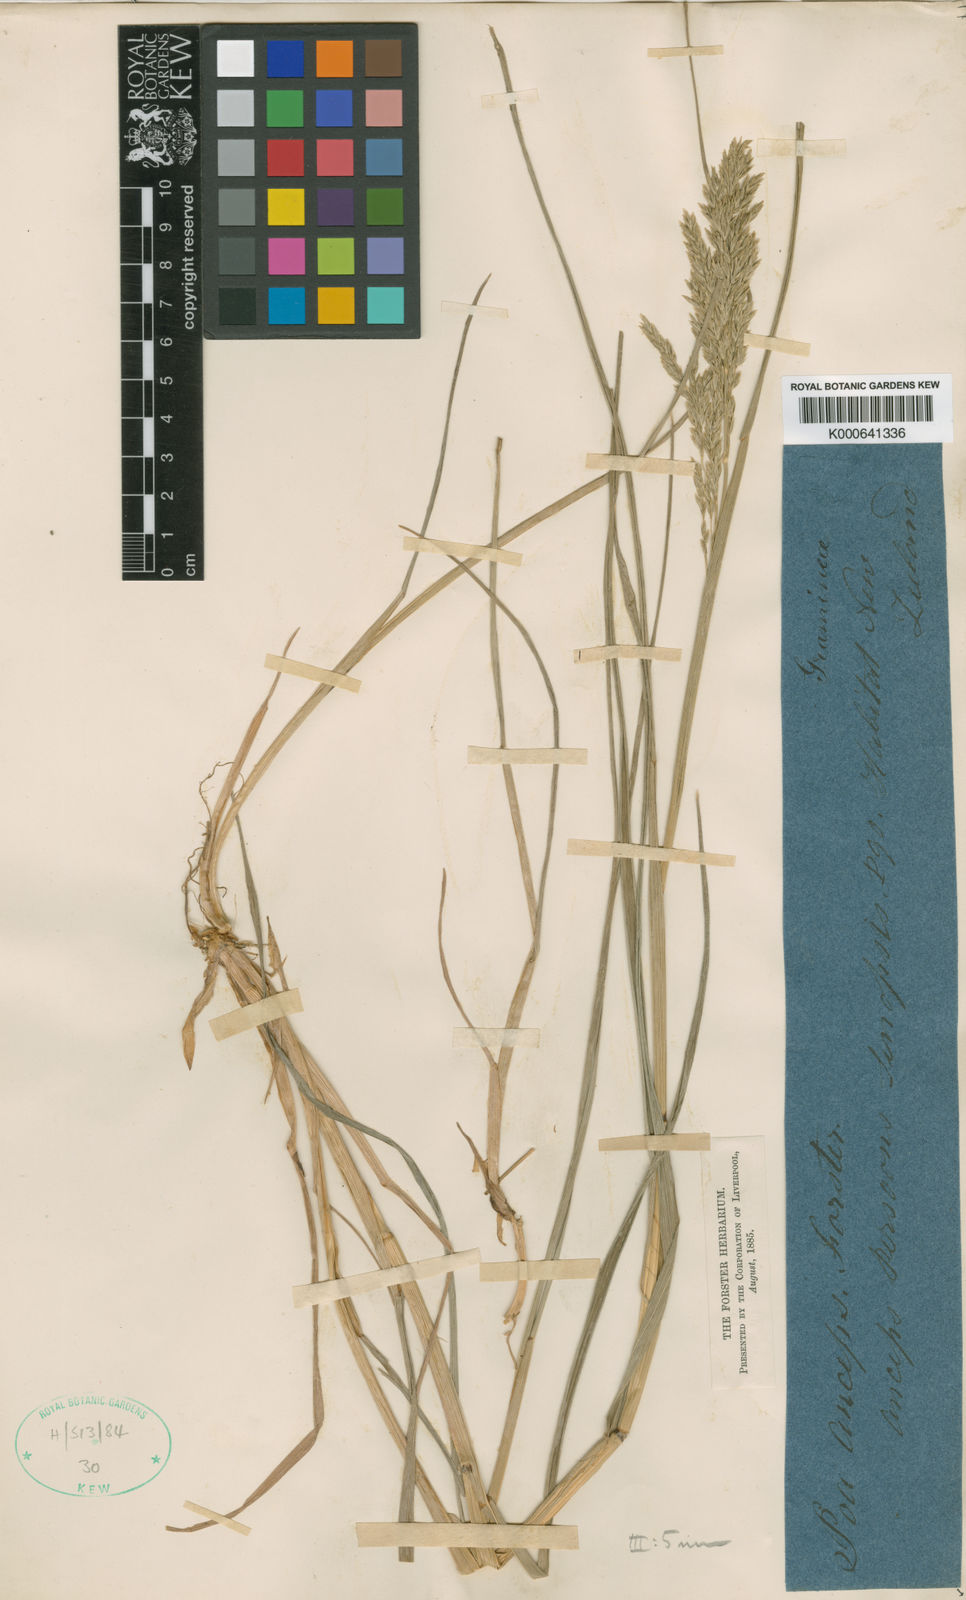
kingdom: Plantae
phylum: Tracheophyta
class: Liliopsida
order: Poales
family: Poaceae
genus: Poa
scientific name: Poa anceps
